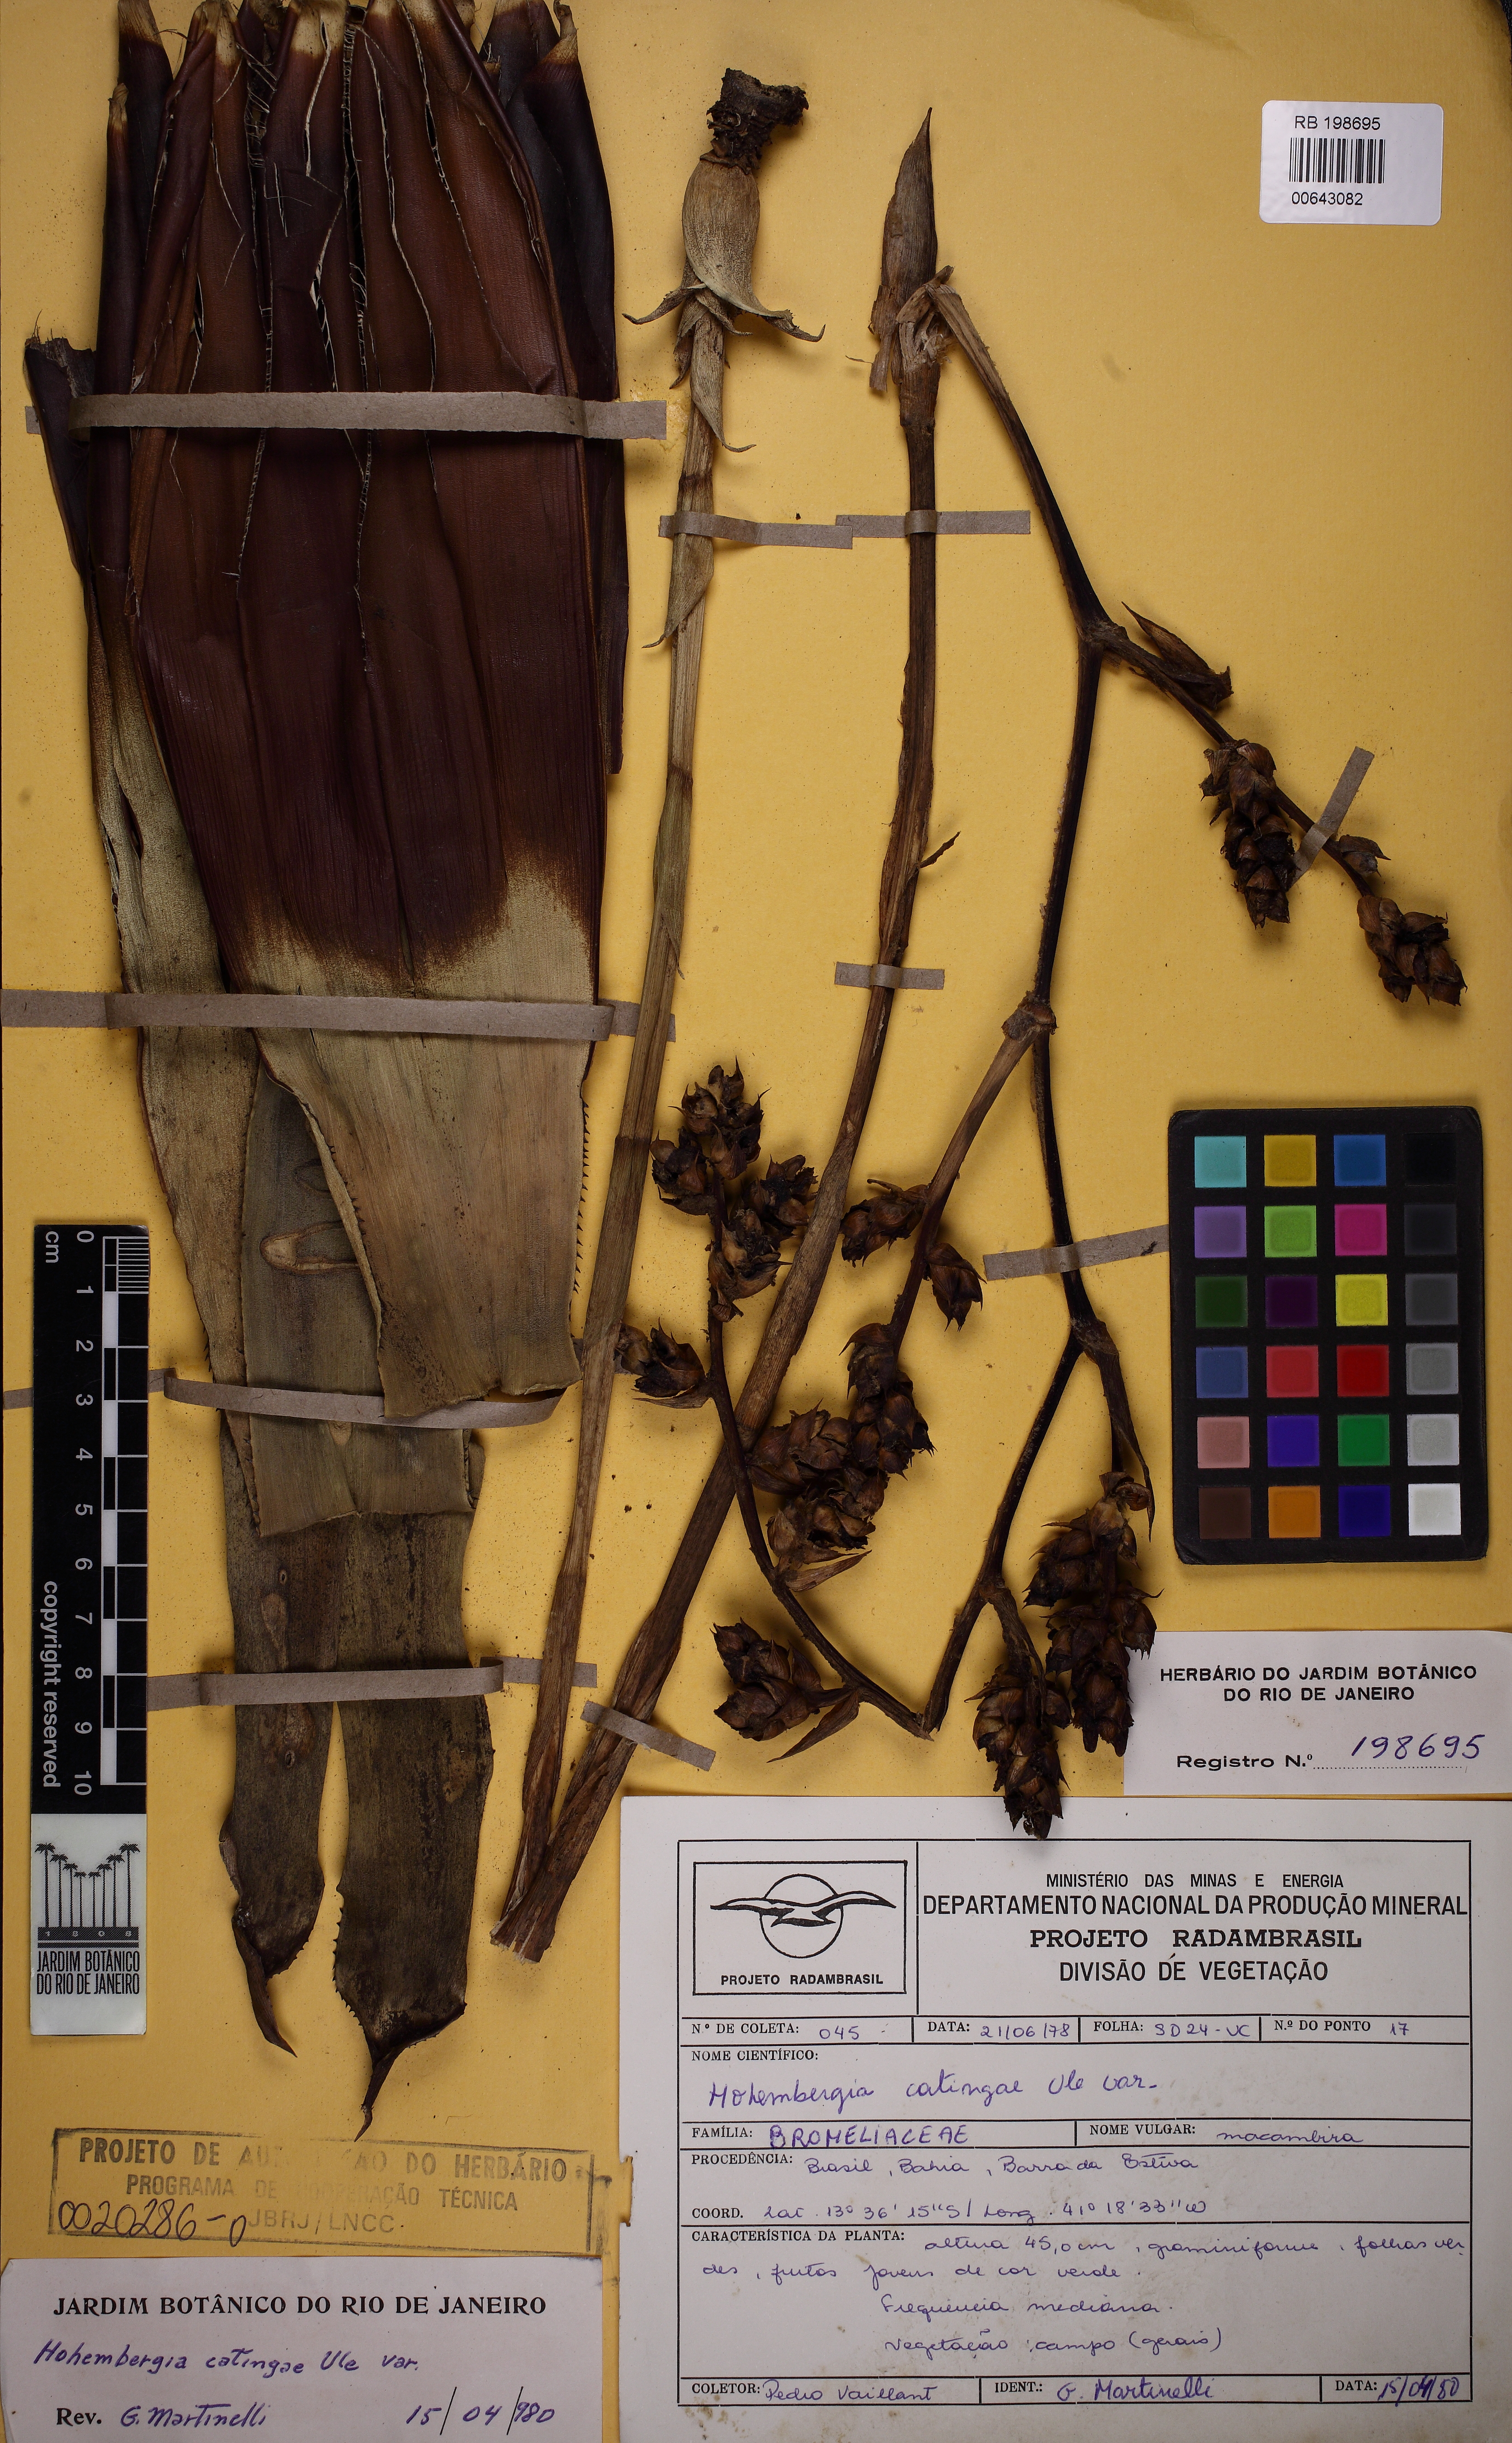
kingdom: Plantae
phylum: Tracheophyta
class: Liliopsida
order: Poales
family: Bromeliaceae
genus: Hohenbergia
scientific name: Hohenbergia catingae
